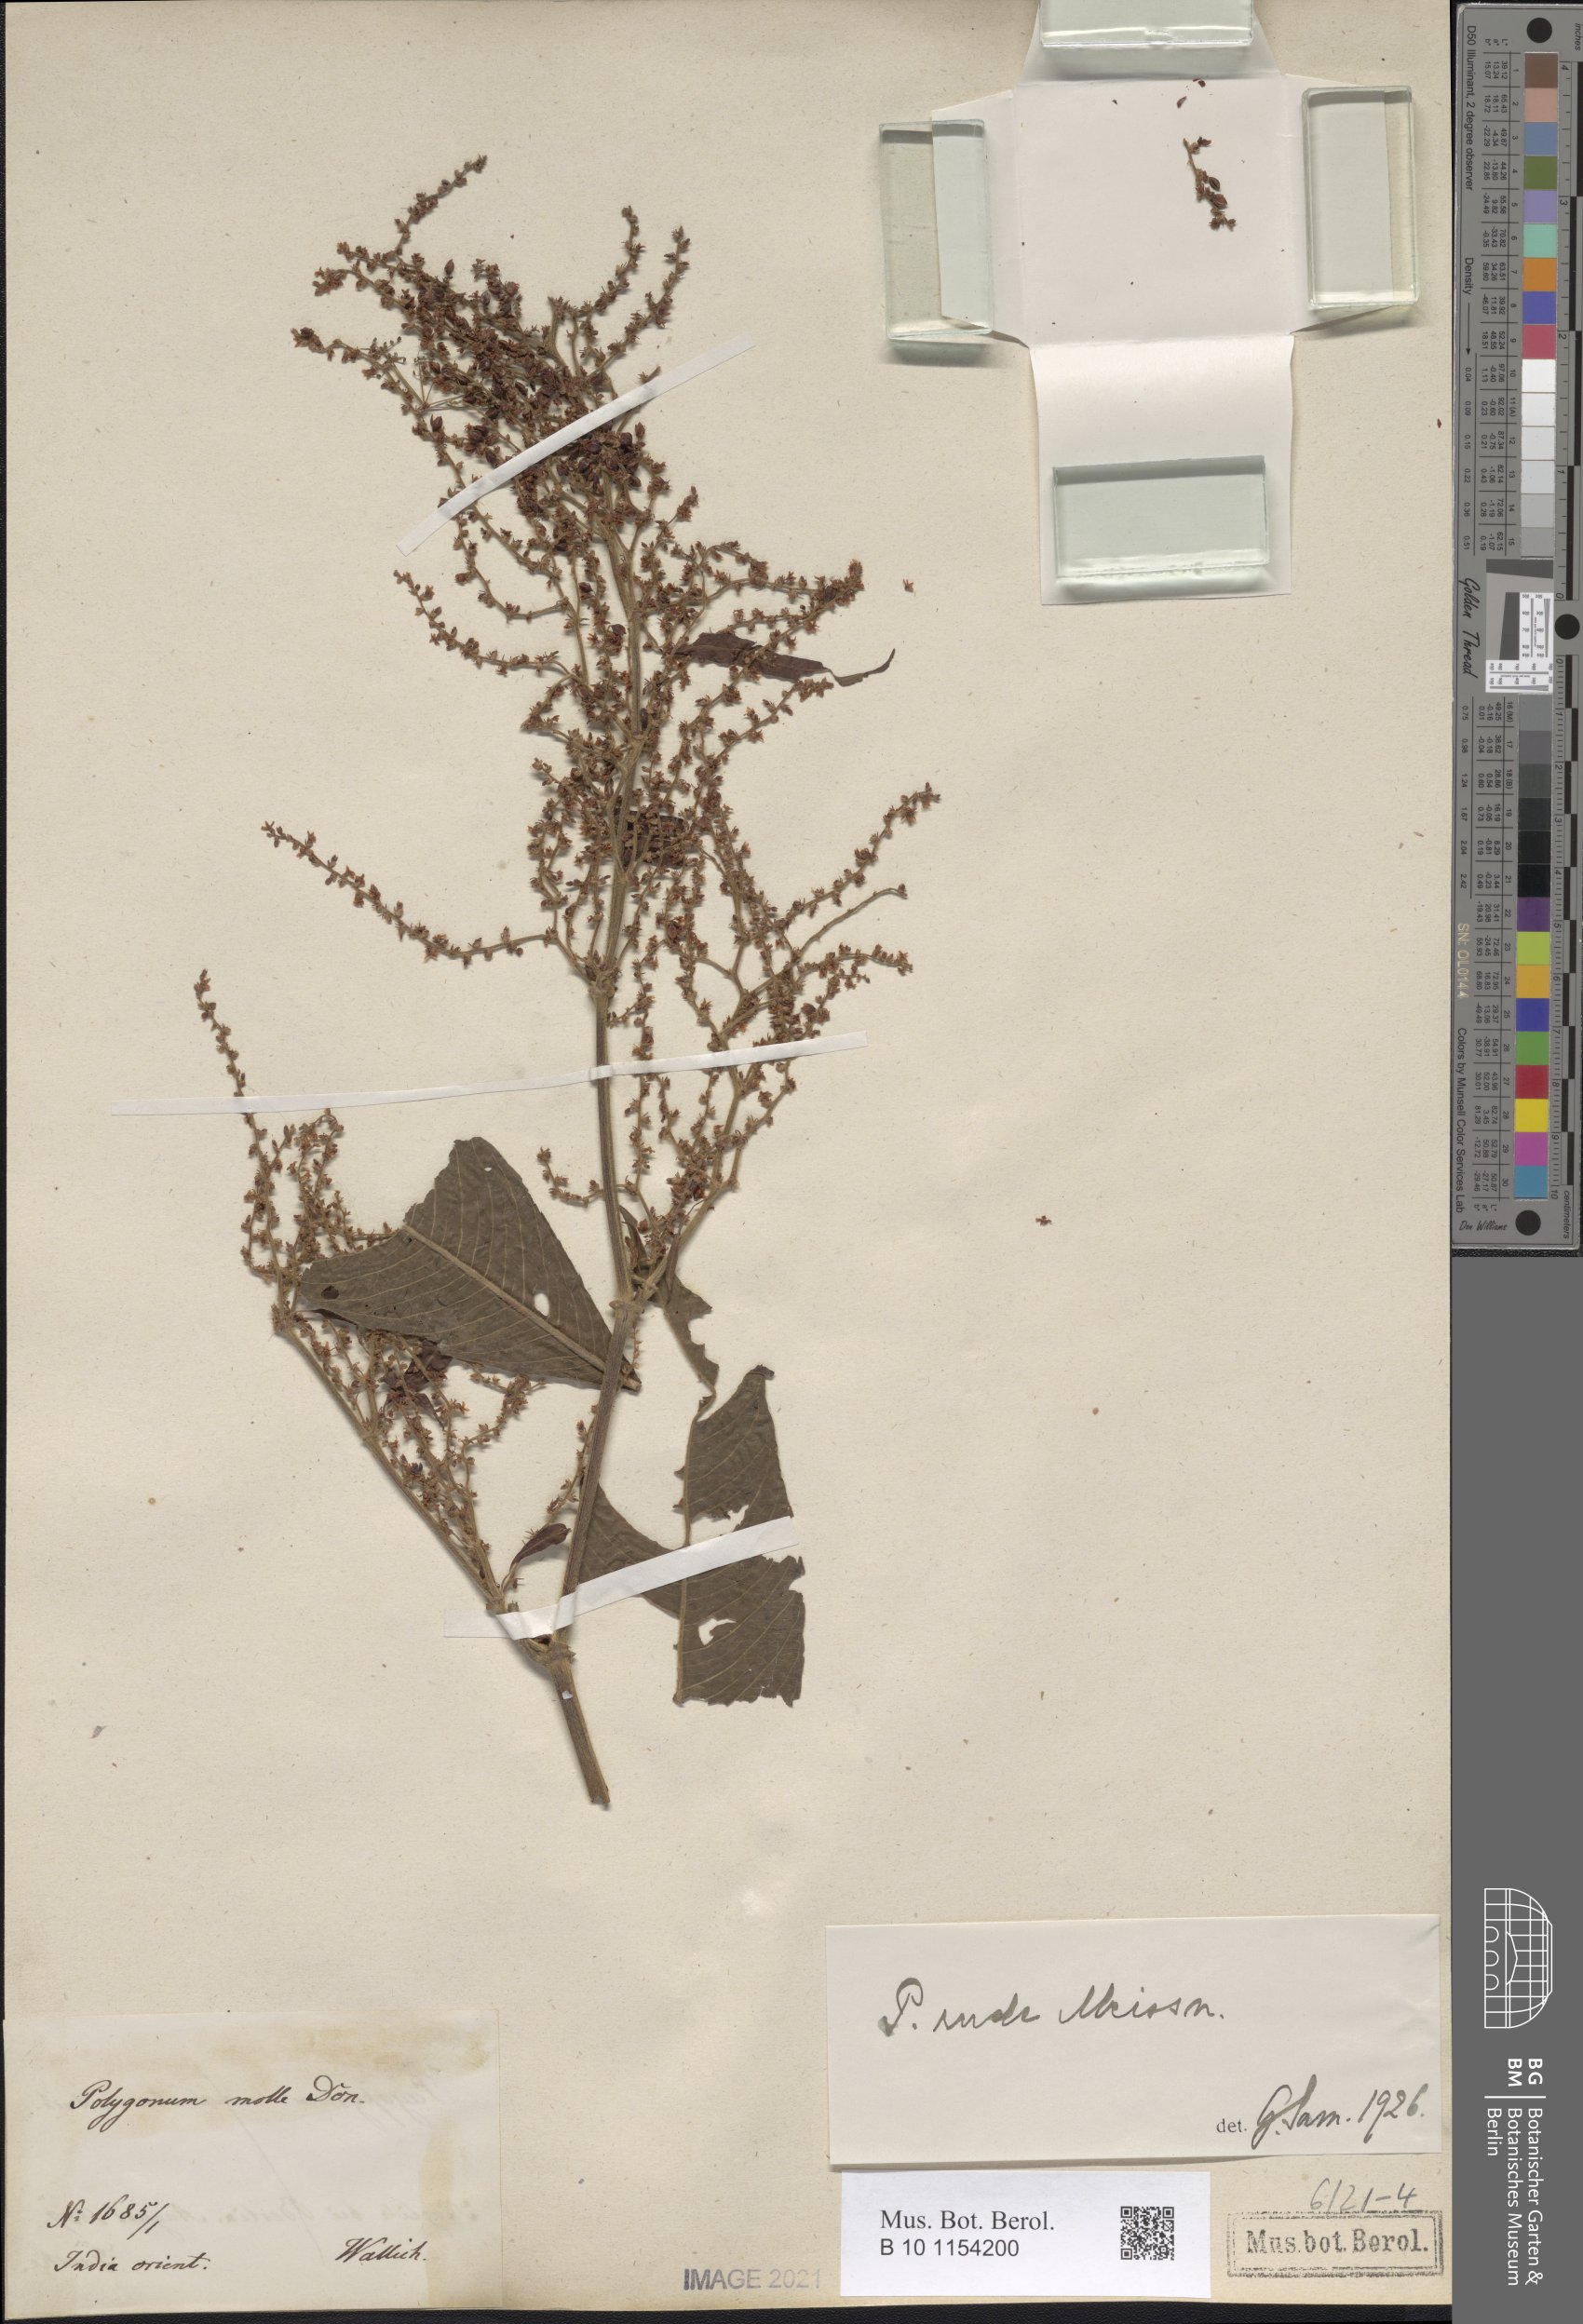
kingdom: Plantae
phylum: Tracheophyta
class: Magnoliopsida
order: Caryophyllales
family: Polygonaceae
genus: Koenigia
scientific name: Koenigia mollis
